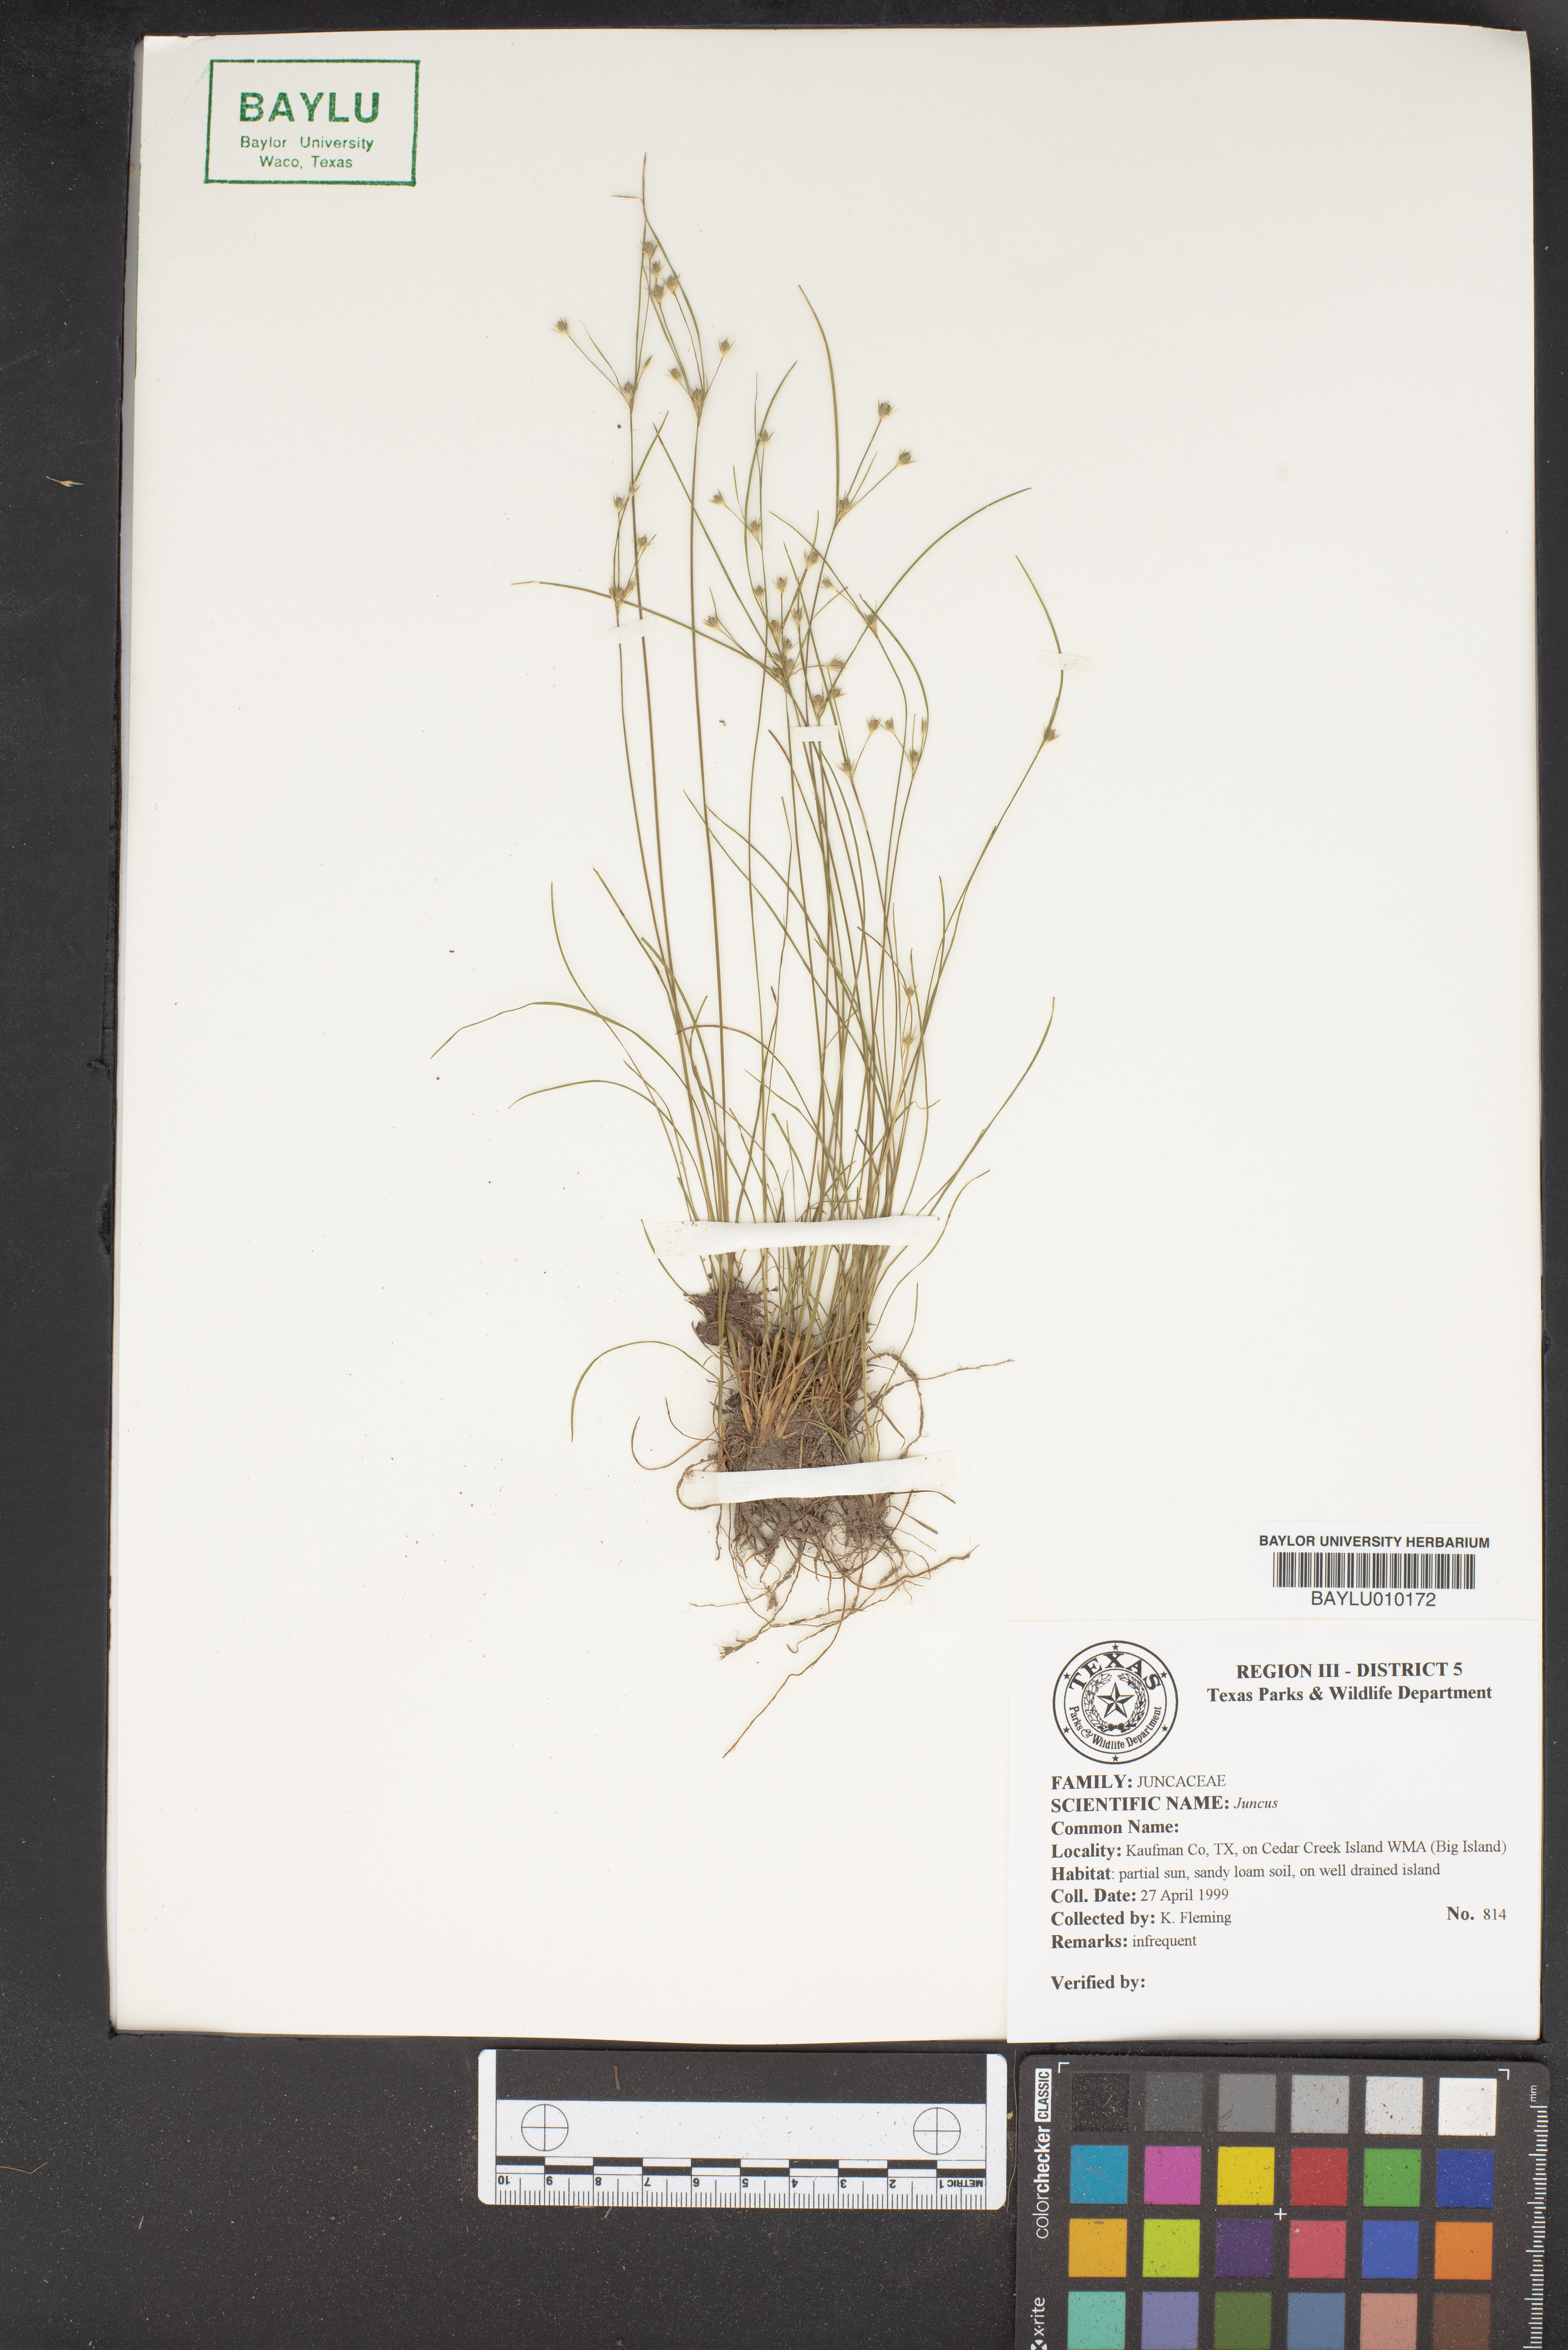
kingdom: Plantae
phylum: Tracheophyta
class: Liliopsida
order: Poales
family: Juncaceae
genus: Juncus
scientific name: Juncus
